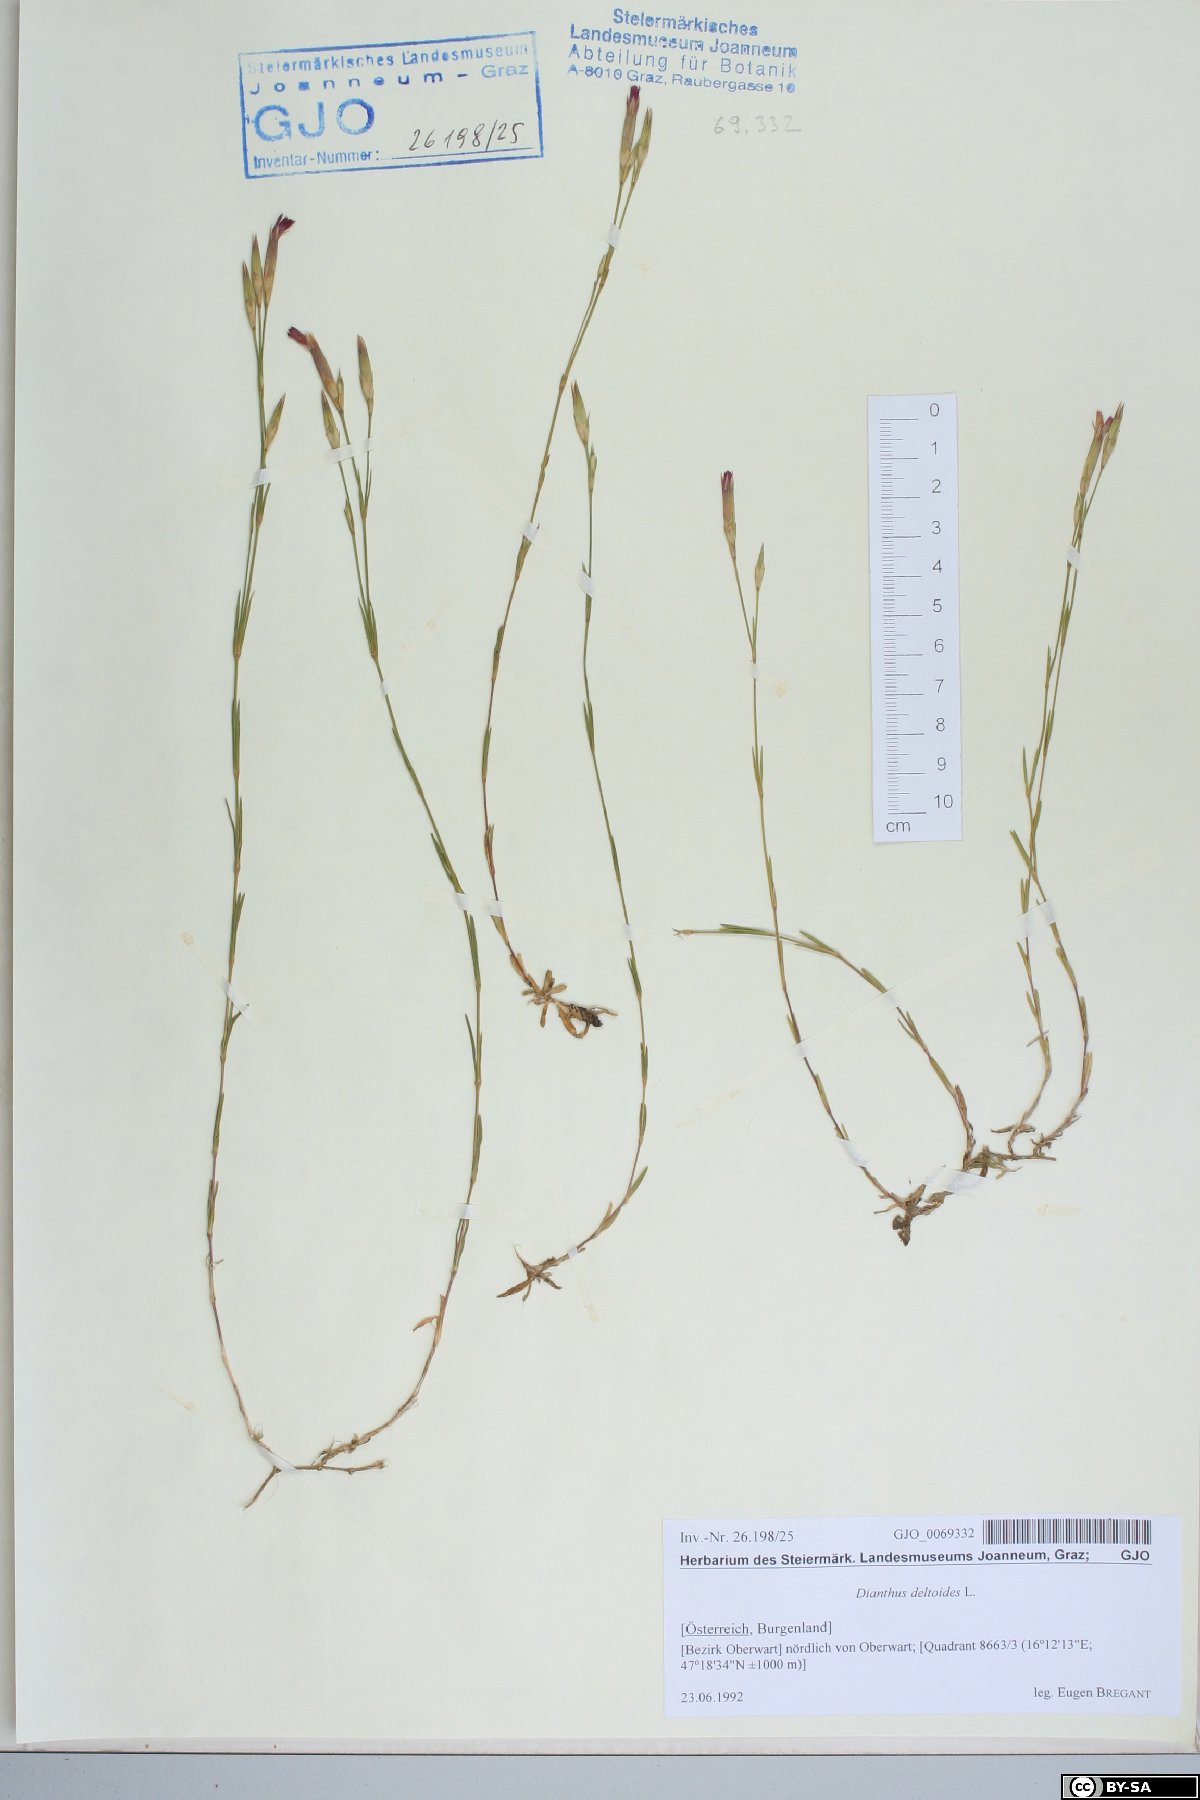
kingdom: Plantae
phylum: Tracheophyta
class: Magnoliopsida
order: Caryophyllales
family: Caryophyllaceae
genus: Dianthus
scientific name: Dianthus deltoides
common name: Maiden pink
